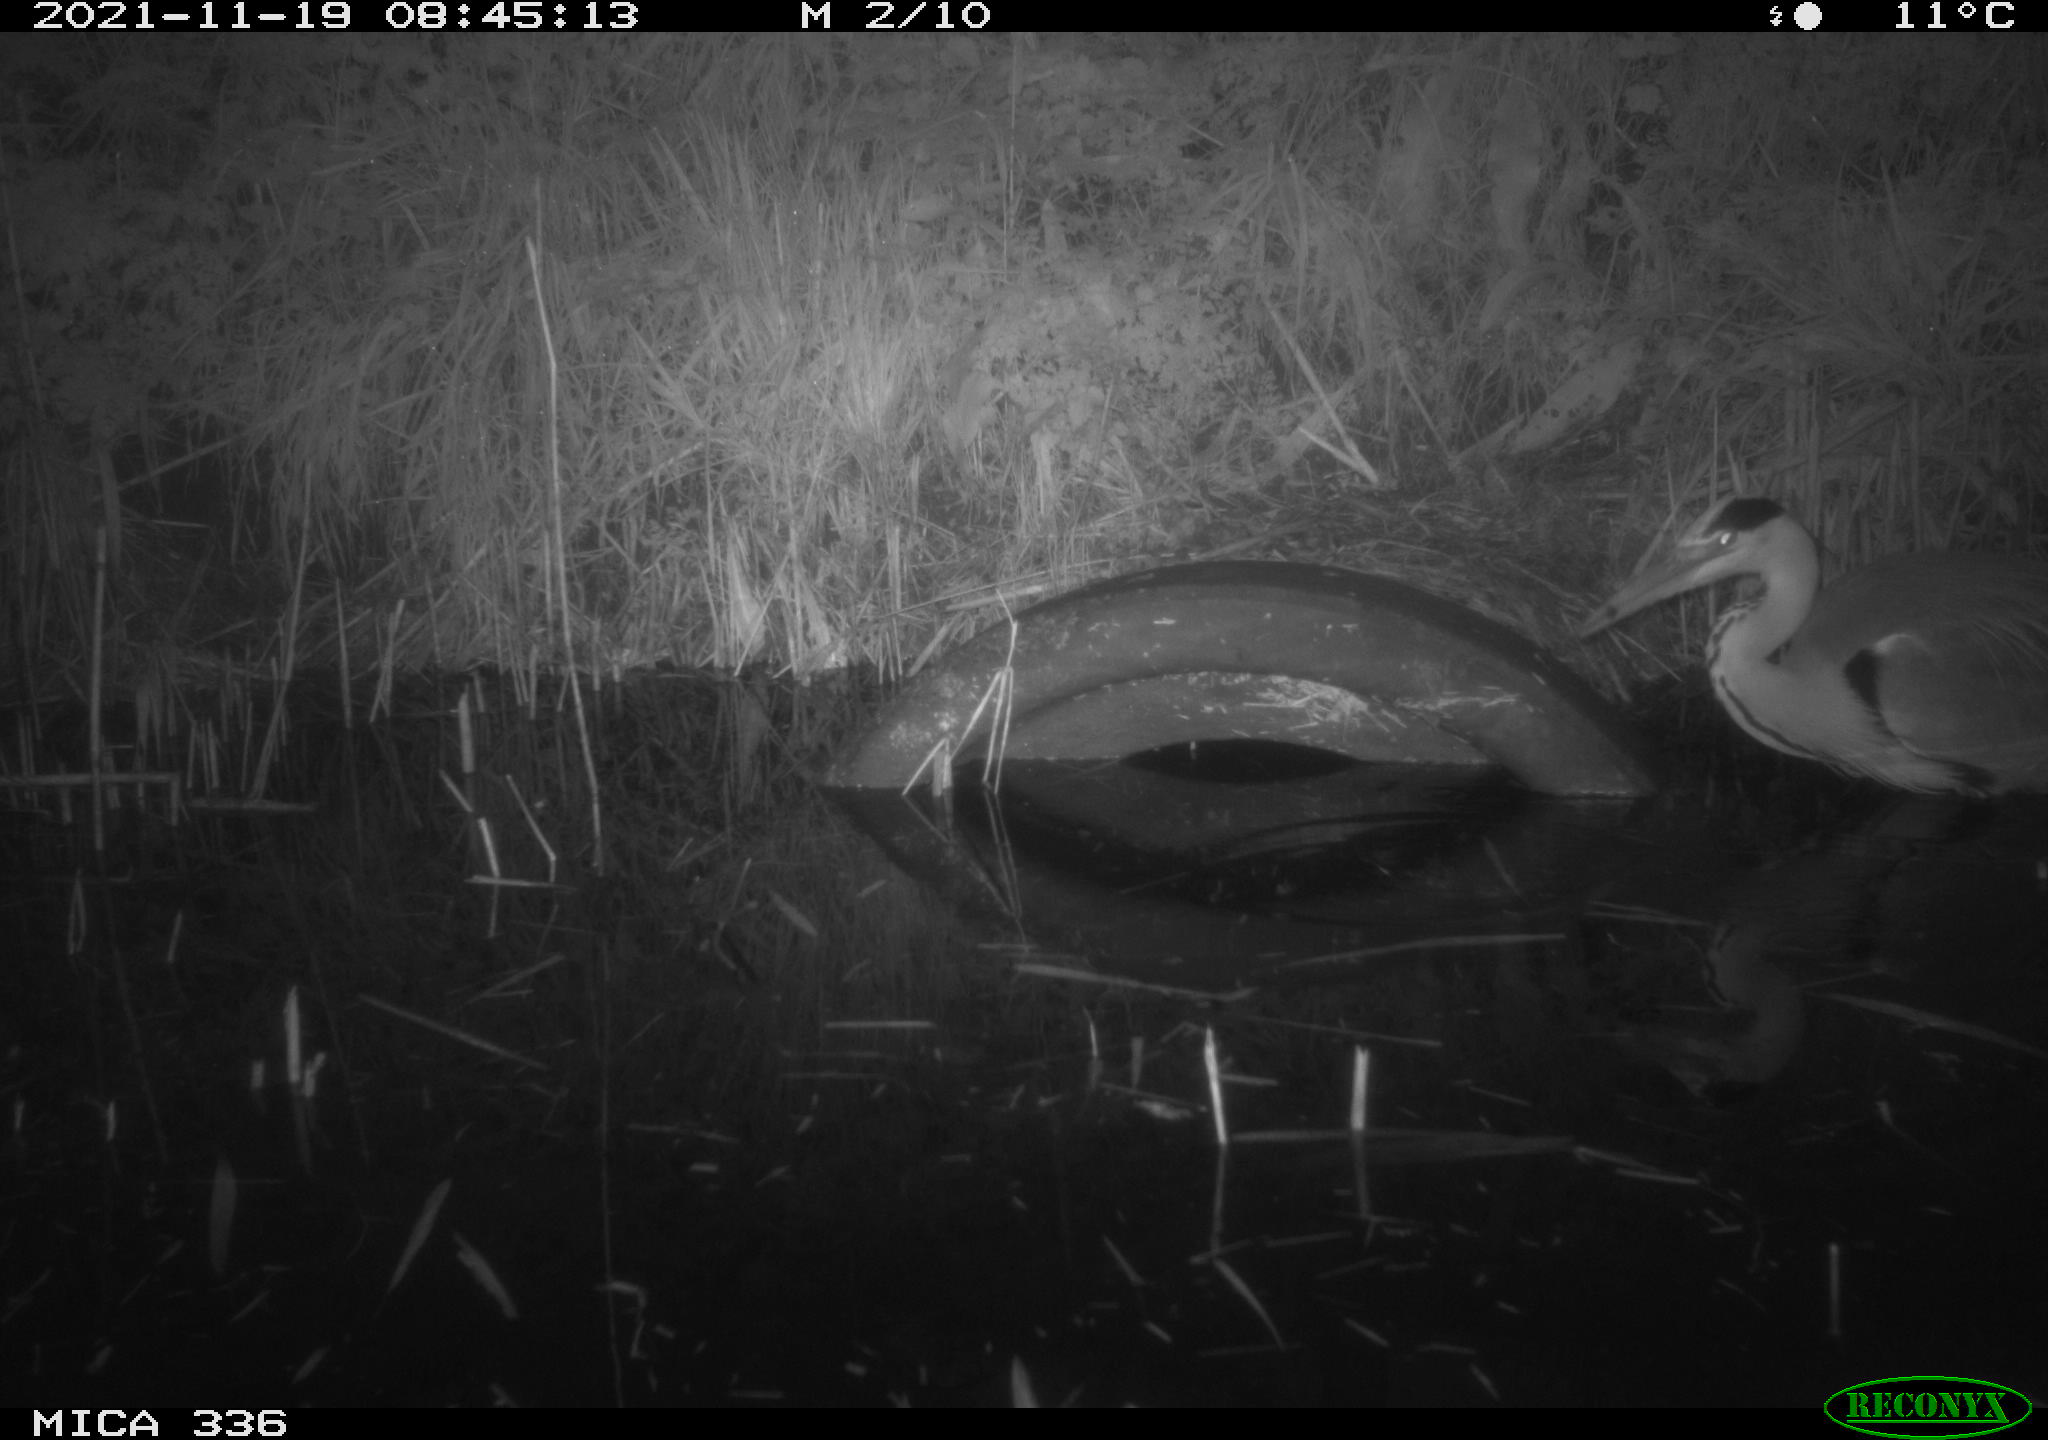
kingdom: Animalia
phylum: Chordata
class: Aves
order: Pelecaniformes
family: Ardeidae
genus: Ardea
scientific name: Ardea cinerea
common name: Grey heron
